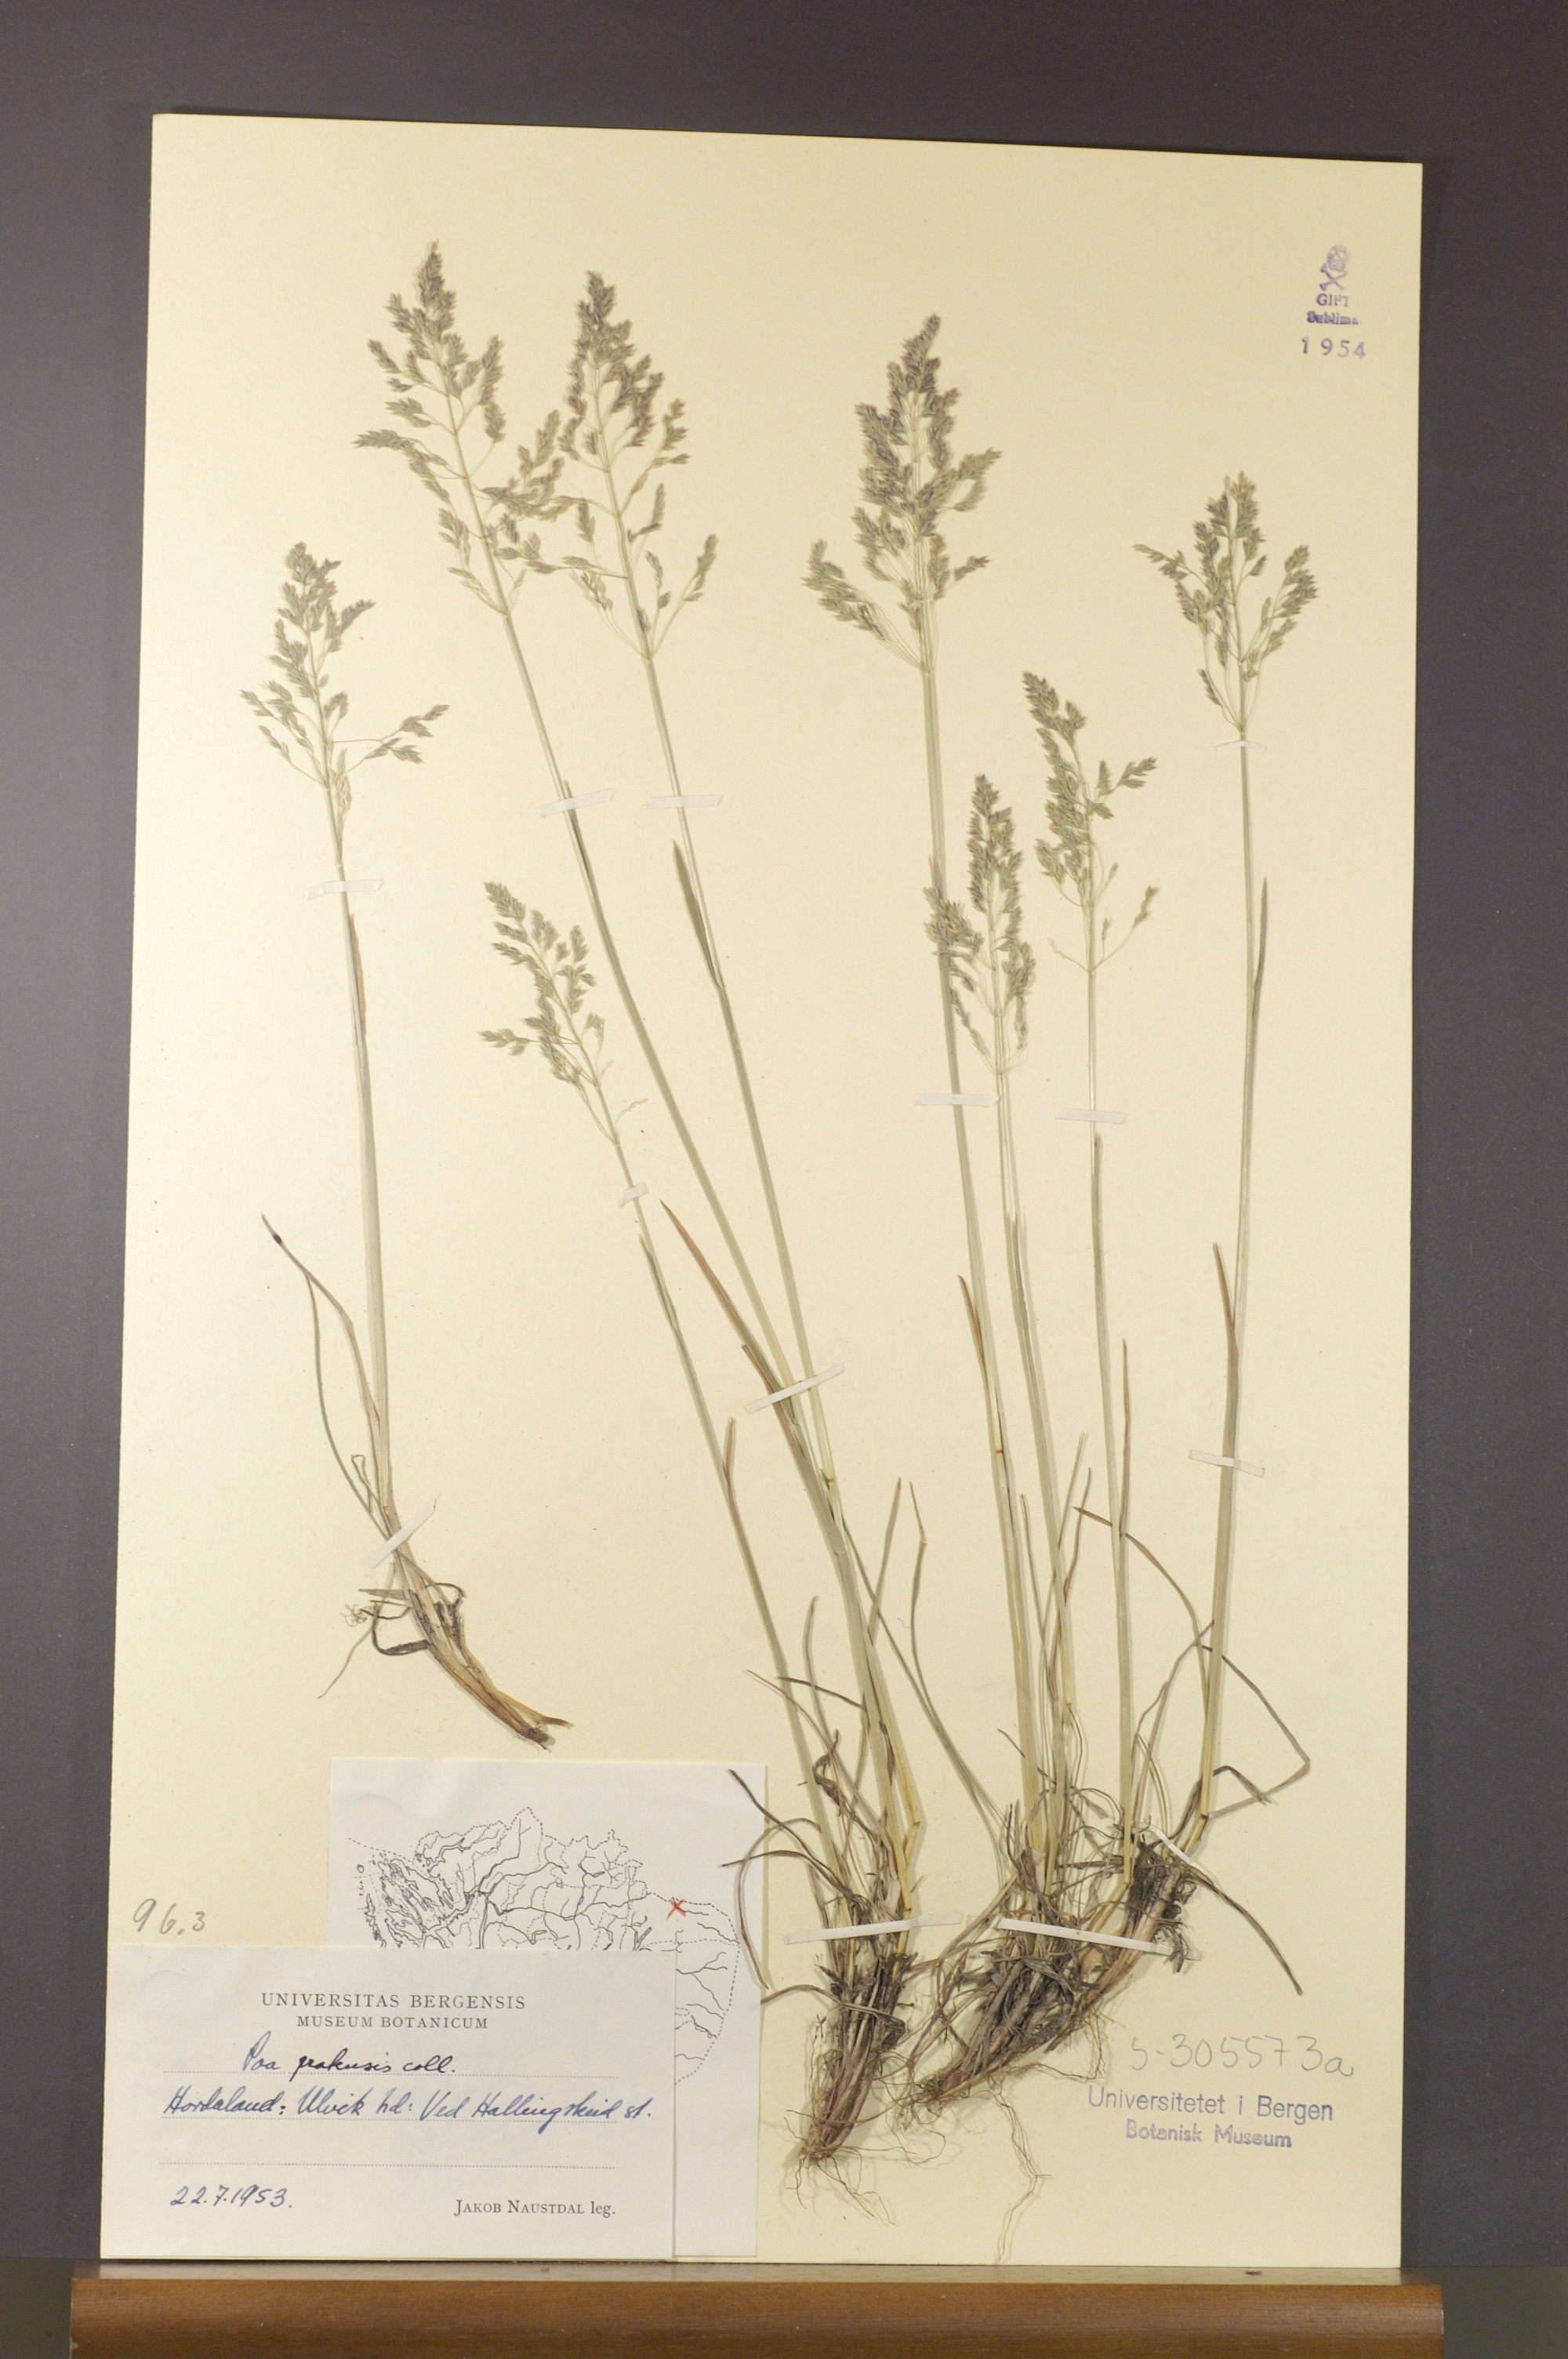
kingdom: Plantae
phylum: Tracheophyta
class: Liliopsida
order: Poales
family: Poaceae
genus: Poa
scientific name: Poa pratensis
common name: Kentucky bluegrass
